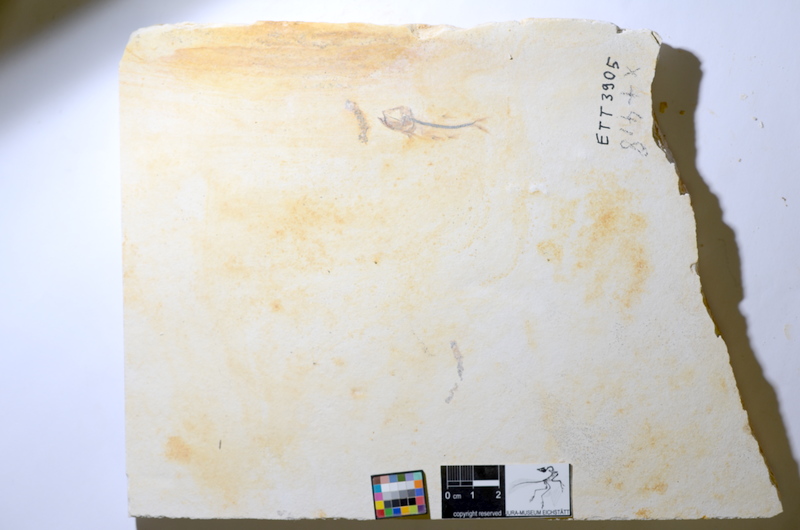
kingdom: Animalia
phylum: Chordata
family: Ascalaboidae
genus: Ebertichthys
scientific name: Ebertichthys ettlingensis
